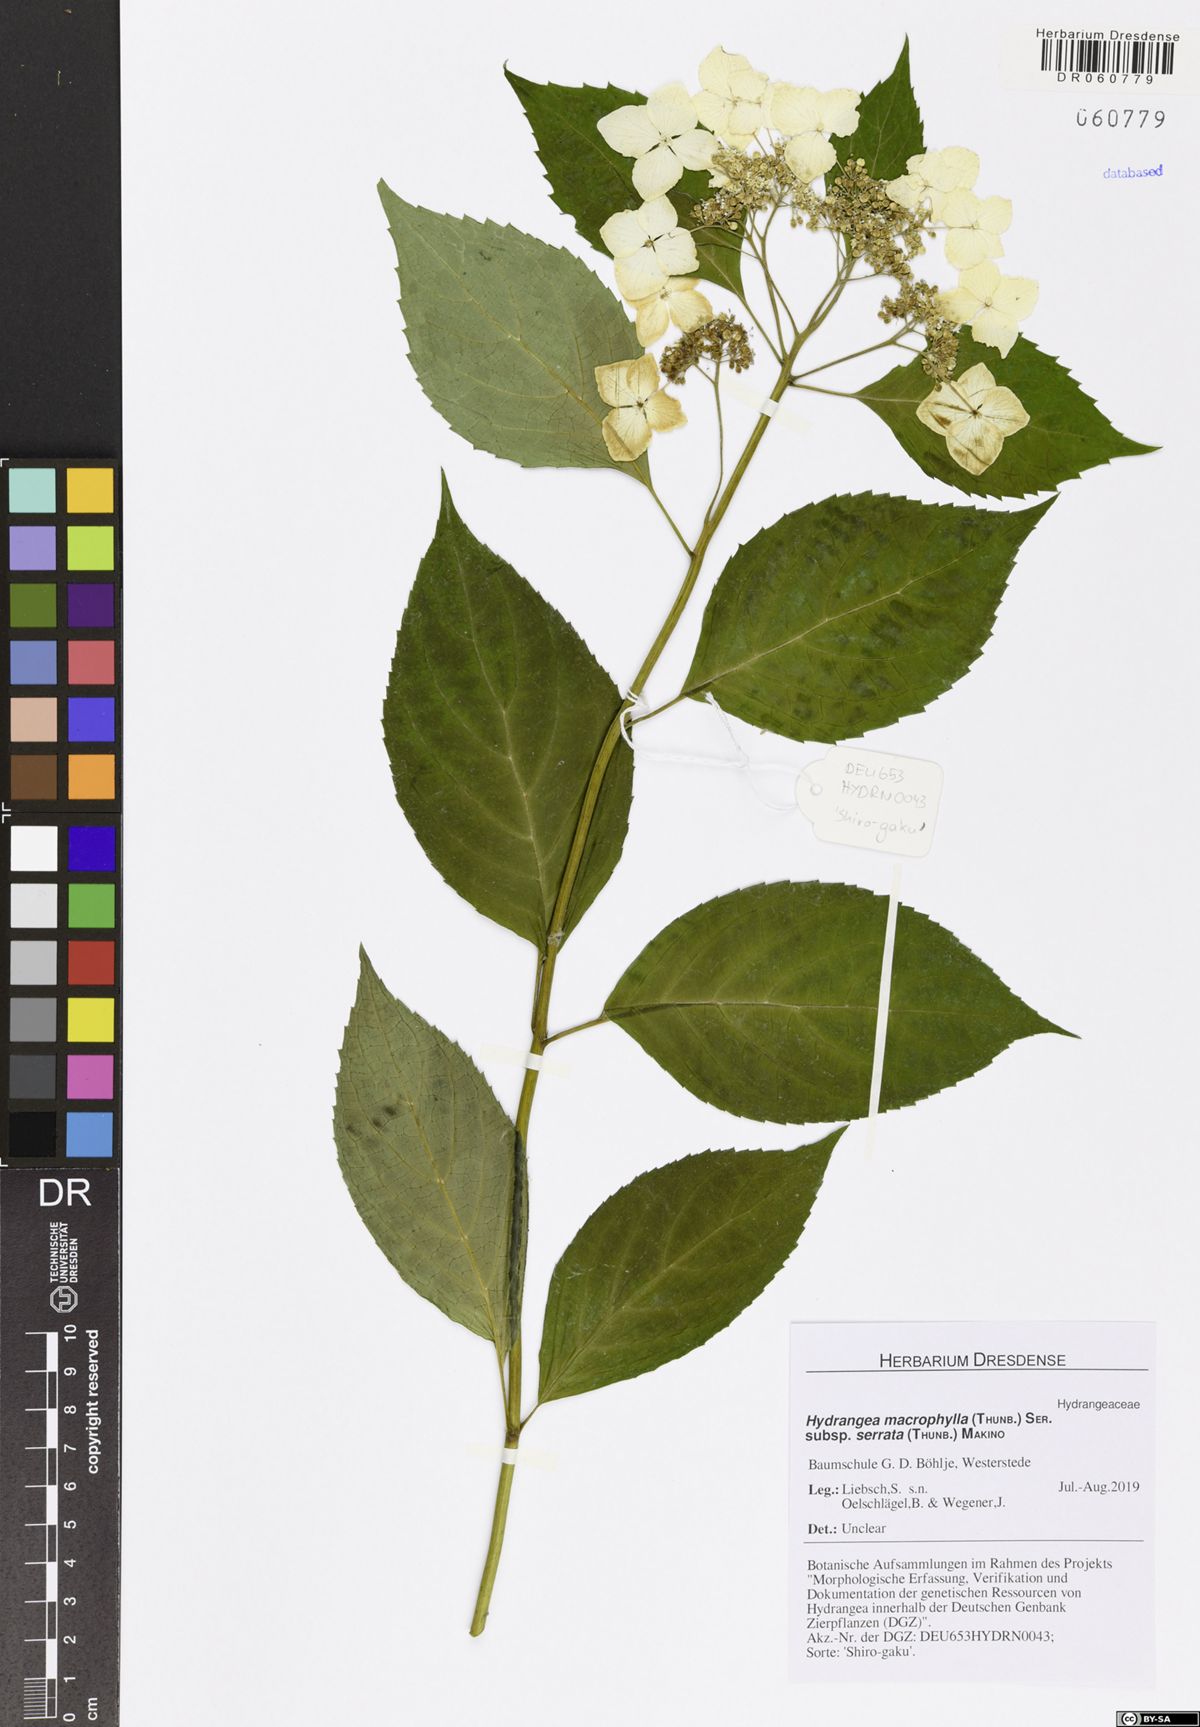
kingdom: Plantae
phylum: Tracheophyta
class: Magnoliopsida
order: Cornales
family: Hydrangeaceae
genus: Hydrangea
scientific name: Hydrangea serrata
